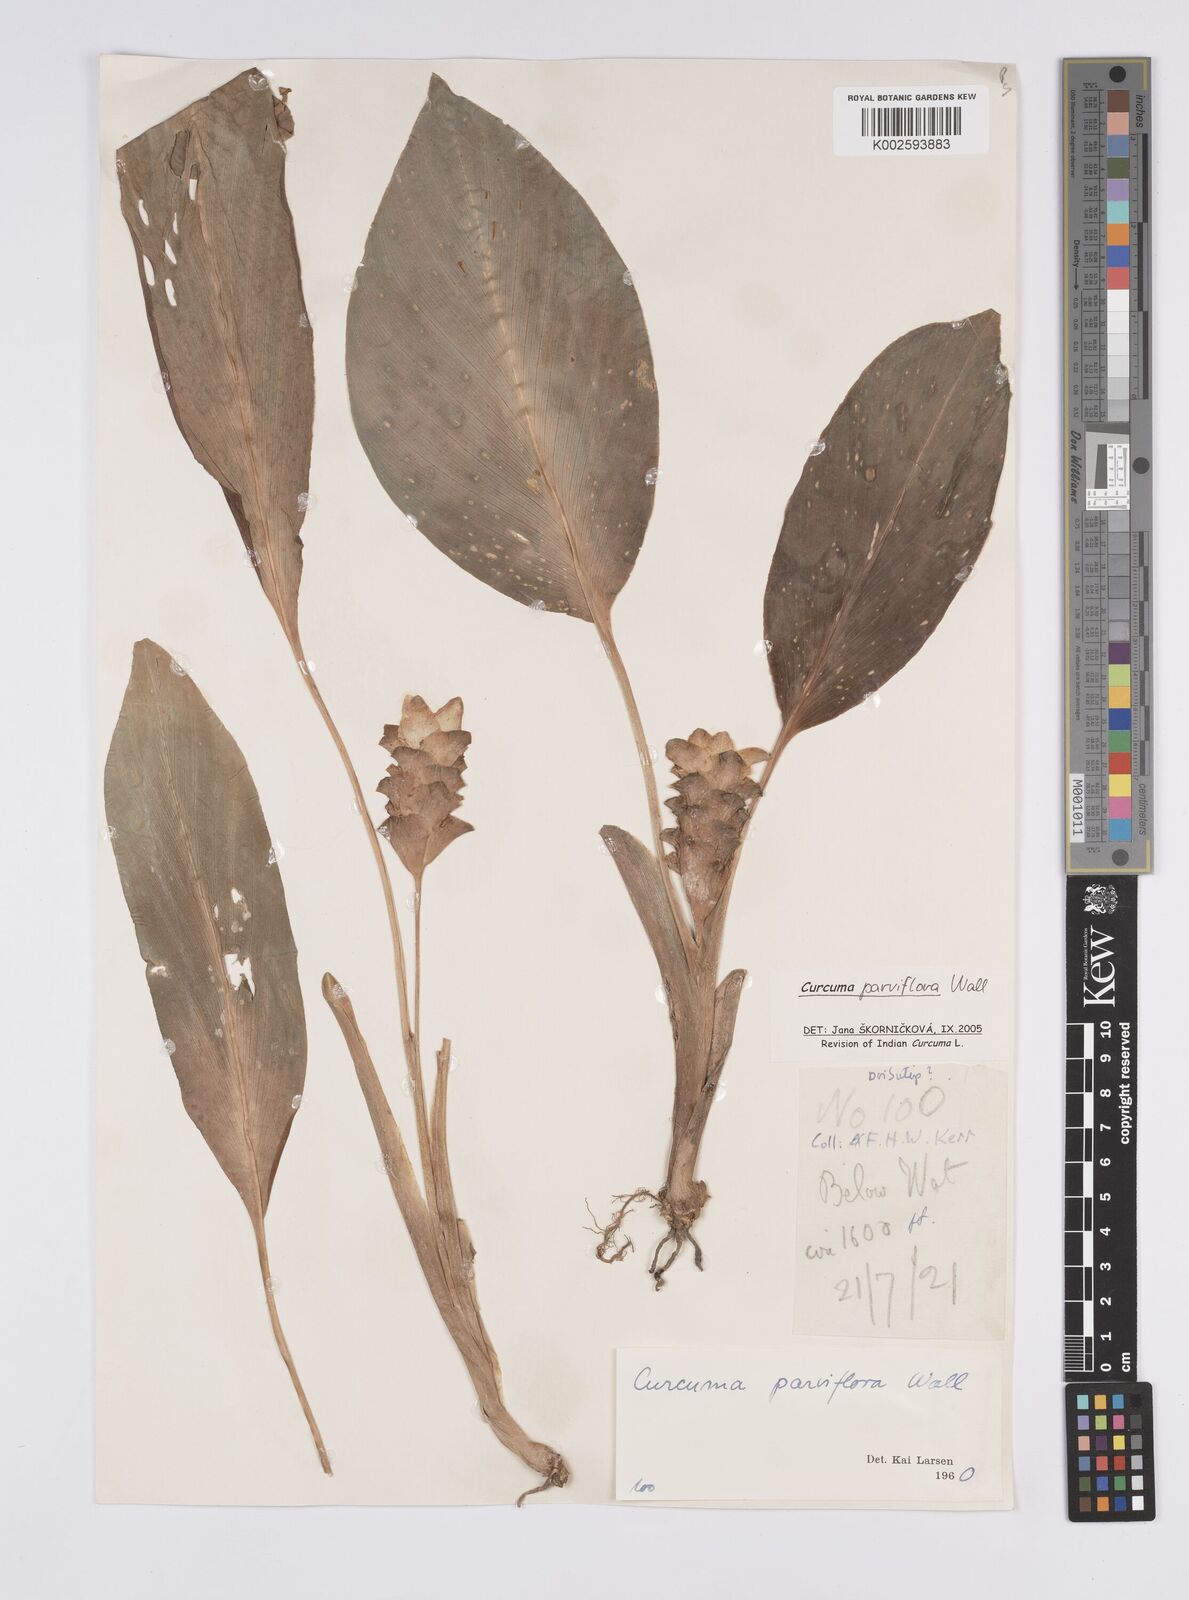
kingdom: Plantae
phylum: Tracheophyta
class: Liliopsida
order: Zingiberales
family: Zingiberaceae
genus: Curcuma
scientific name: Curcuma parviflora
